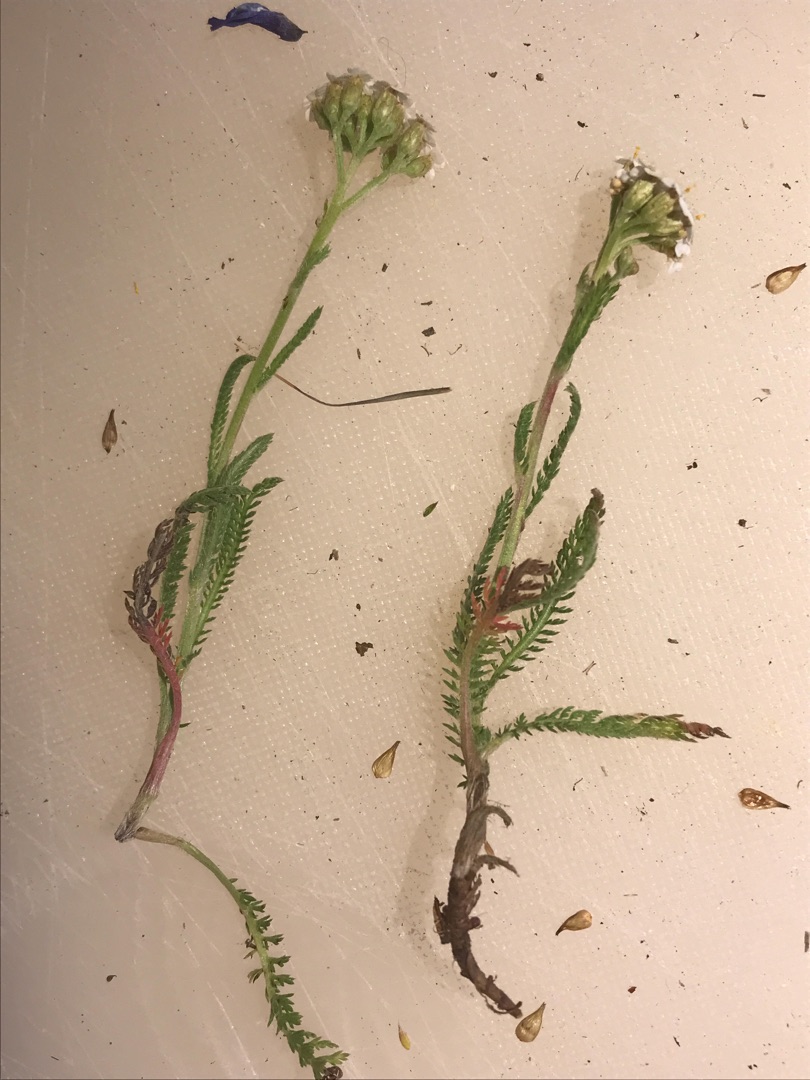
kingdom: Plantae
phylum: Tracheophyta
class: Magnoliopsida
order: Asterales
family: Asteraceae
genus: Achillea
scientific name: Achillea millefolium
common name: Almindelig røllike
